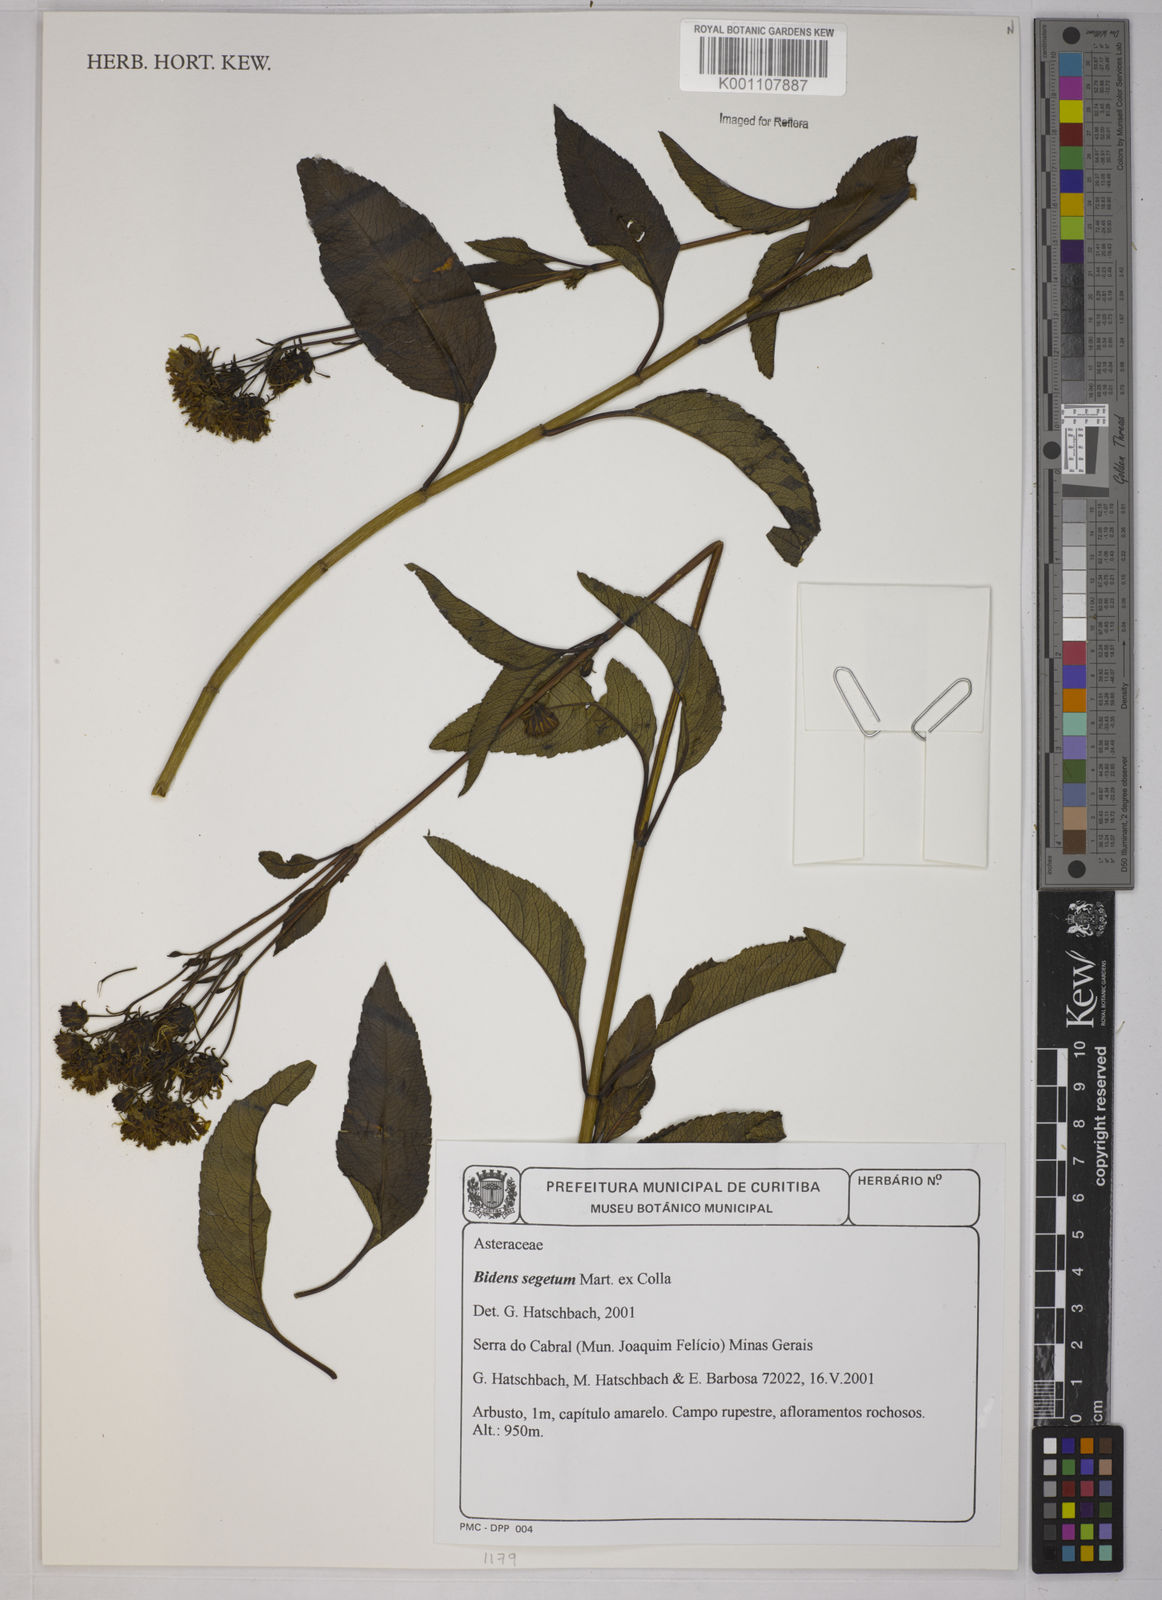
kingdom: Plantae
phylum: Tracheophyta
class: Magnoliopsida
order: Asterales
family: Asteraceae
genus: Bidens
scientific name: Bidens segetum
